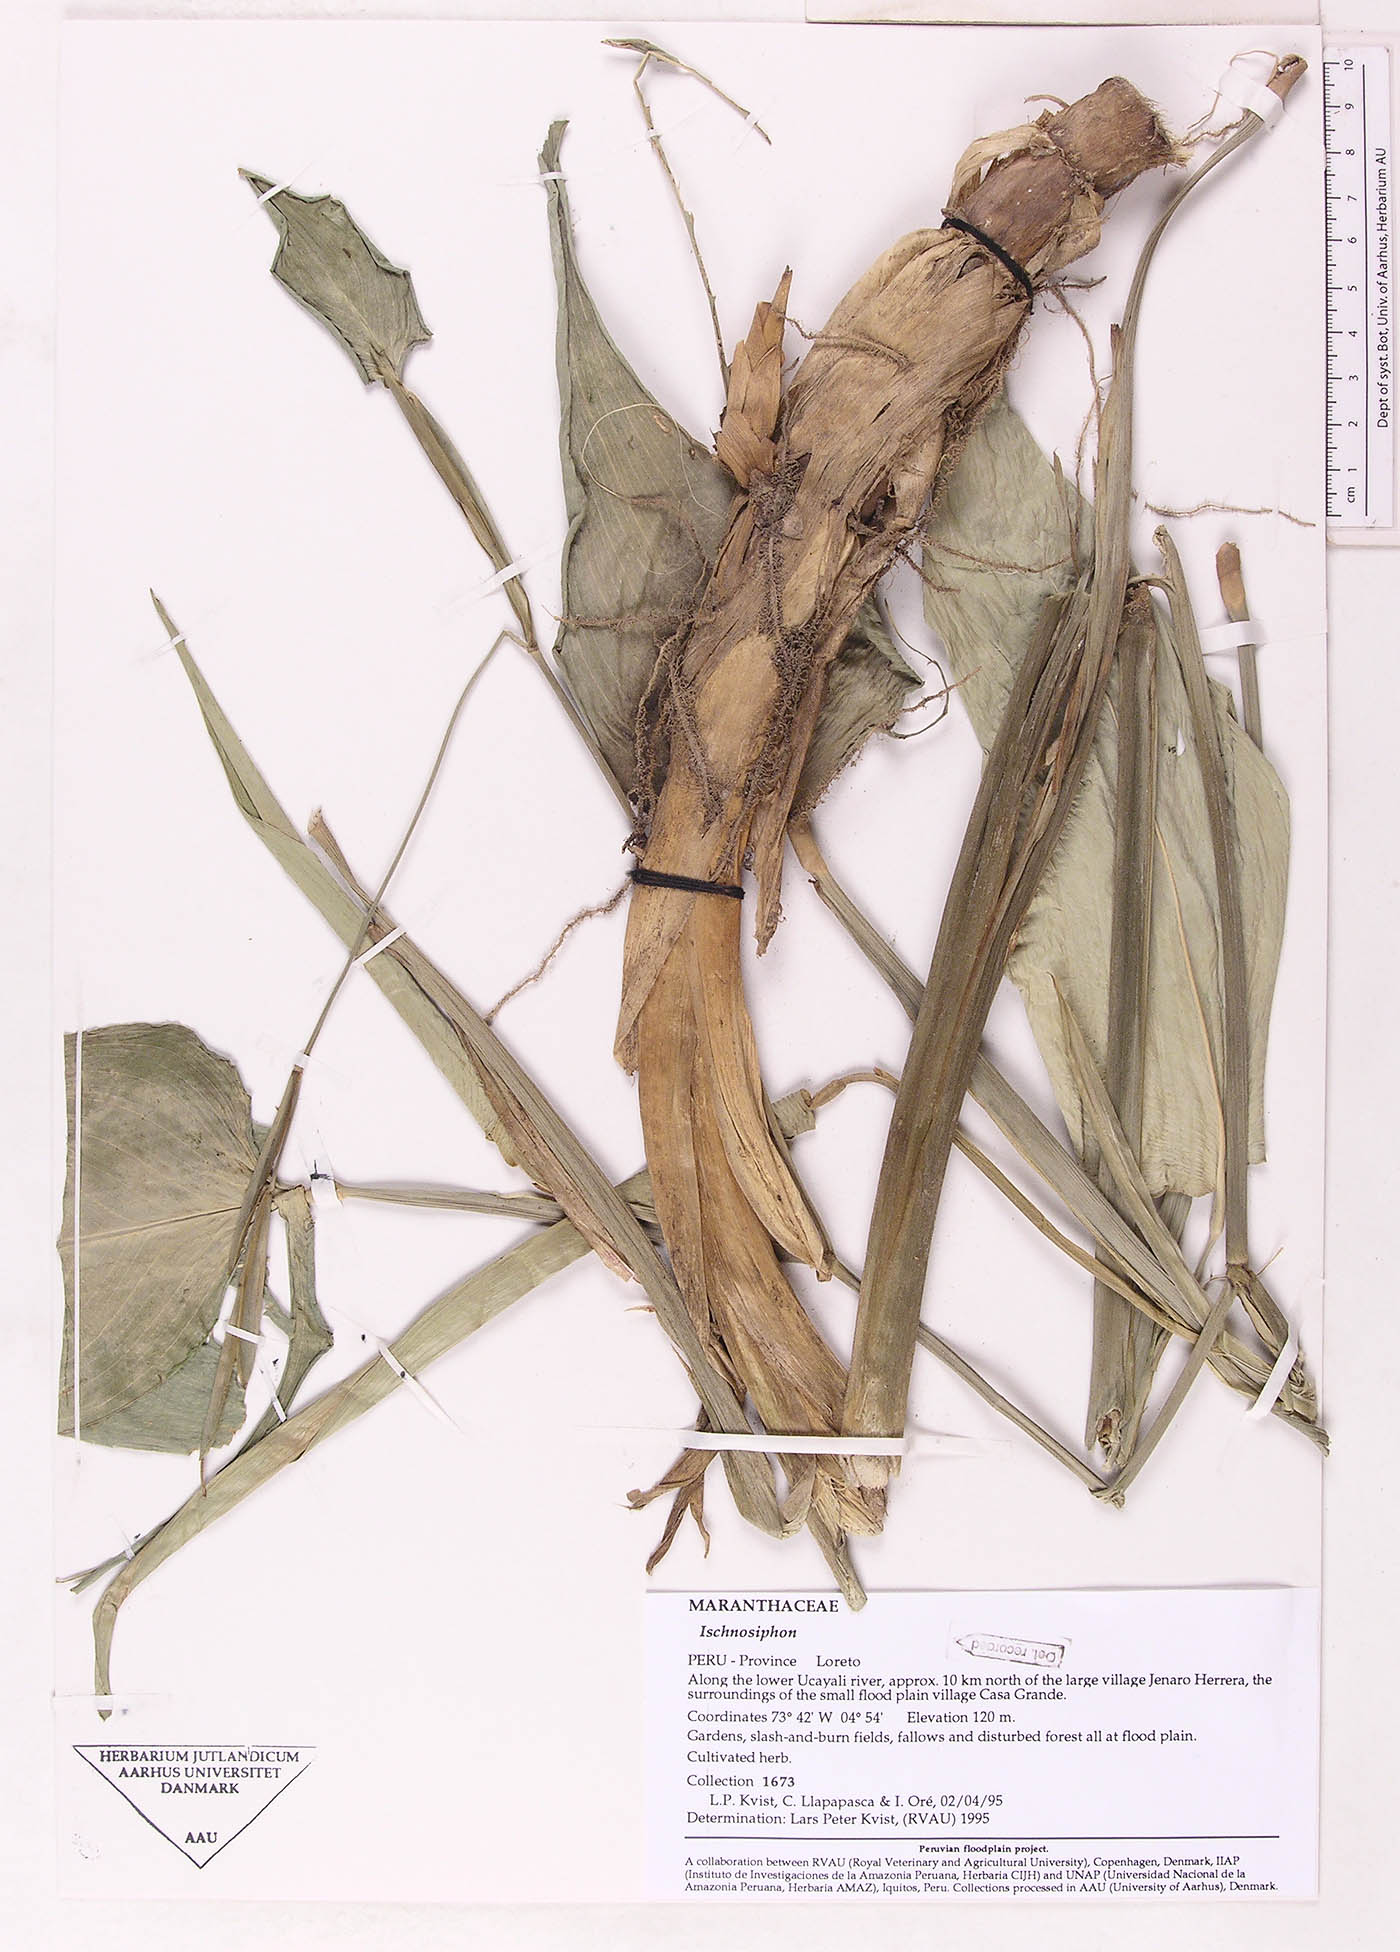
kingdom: Plantae
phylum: Tracheophyta
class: Liliopsida
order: Zingiberales
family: Marantaceae
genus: Ischnosiphon
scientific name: Ischnosiphon
